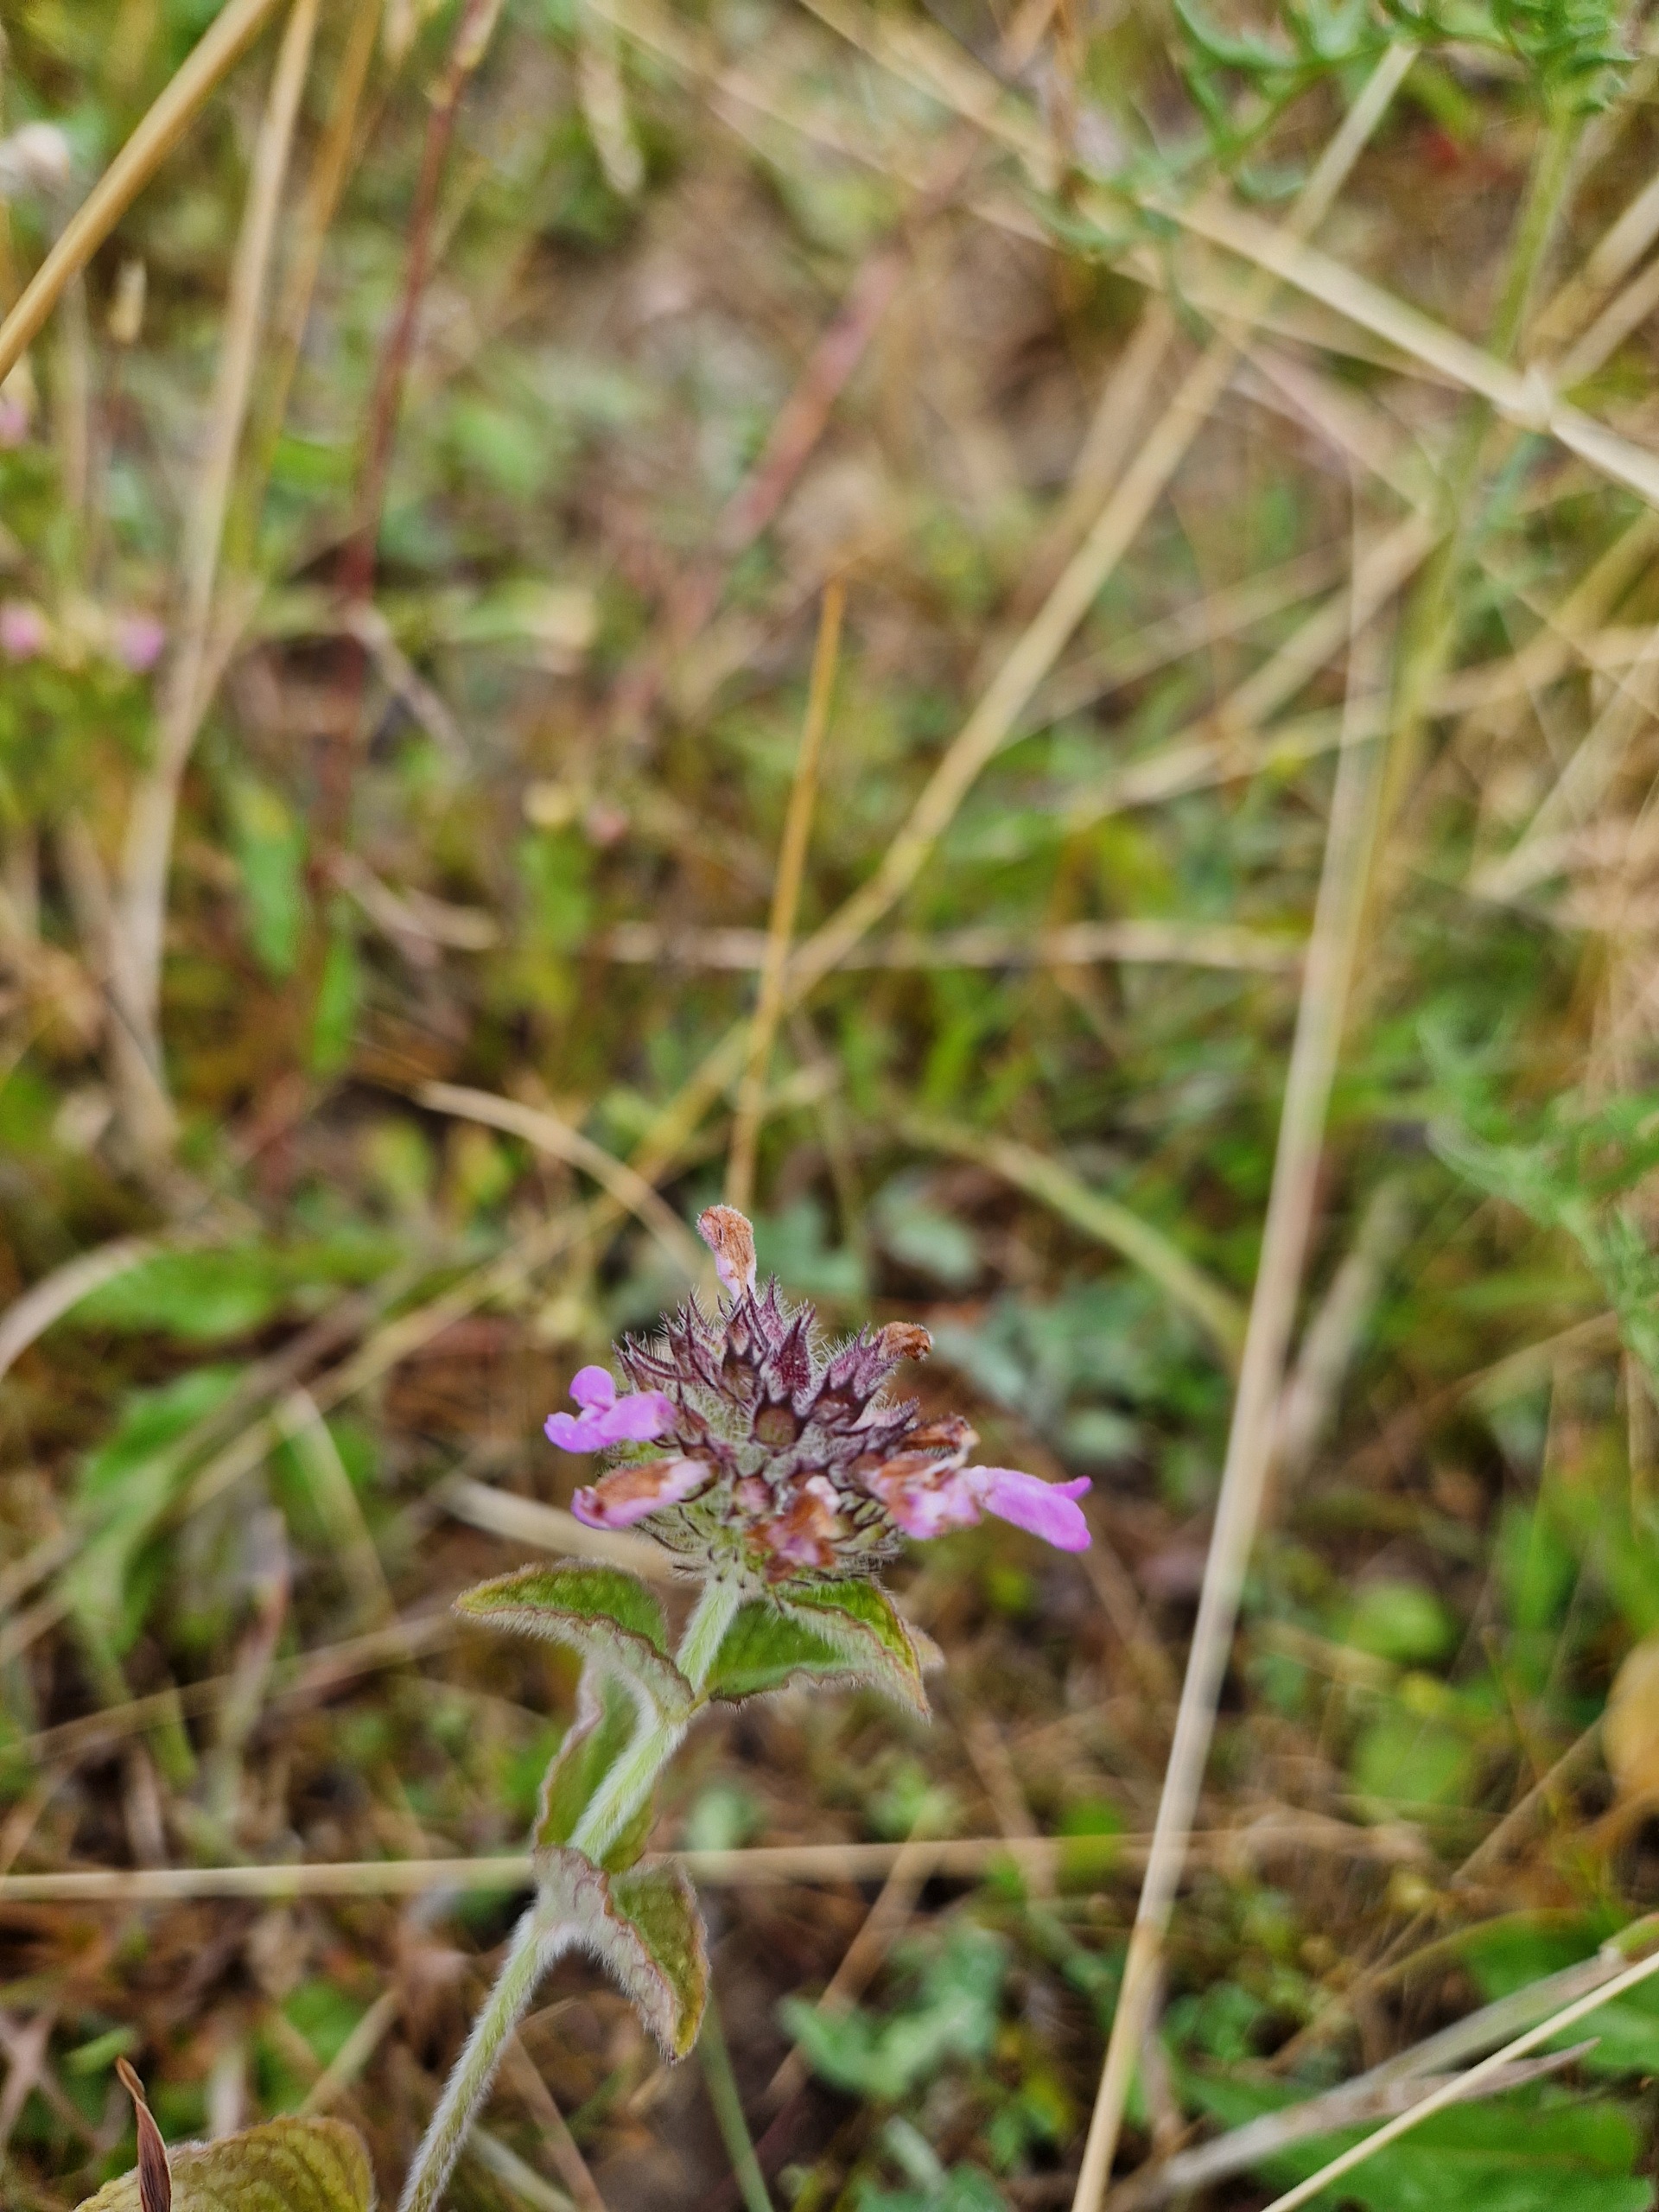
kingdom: Plantae
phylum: Tracheophyta
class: Magnoliopsida
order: Lamiales
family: Lamiaceae
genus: Clinopodium
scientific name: Clinopodium vulgare
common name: Kransbørste
